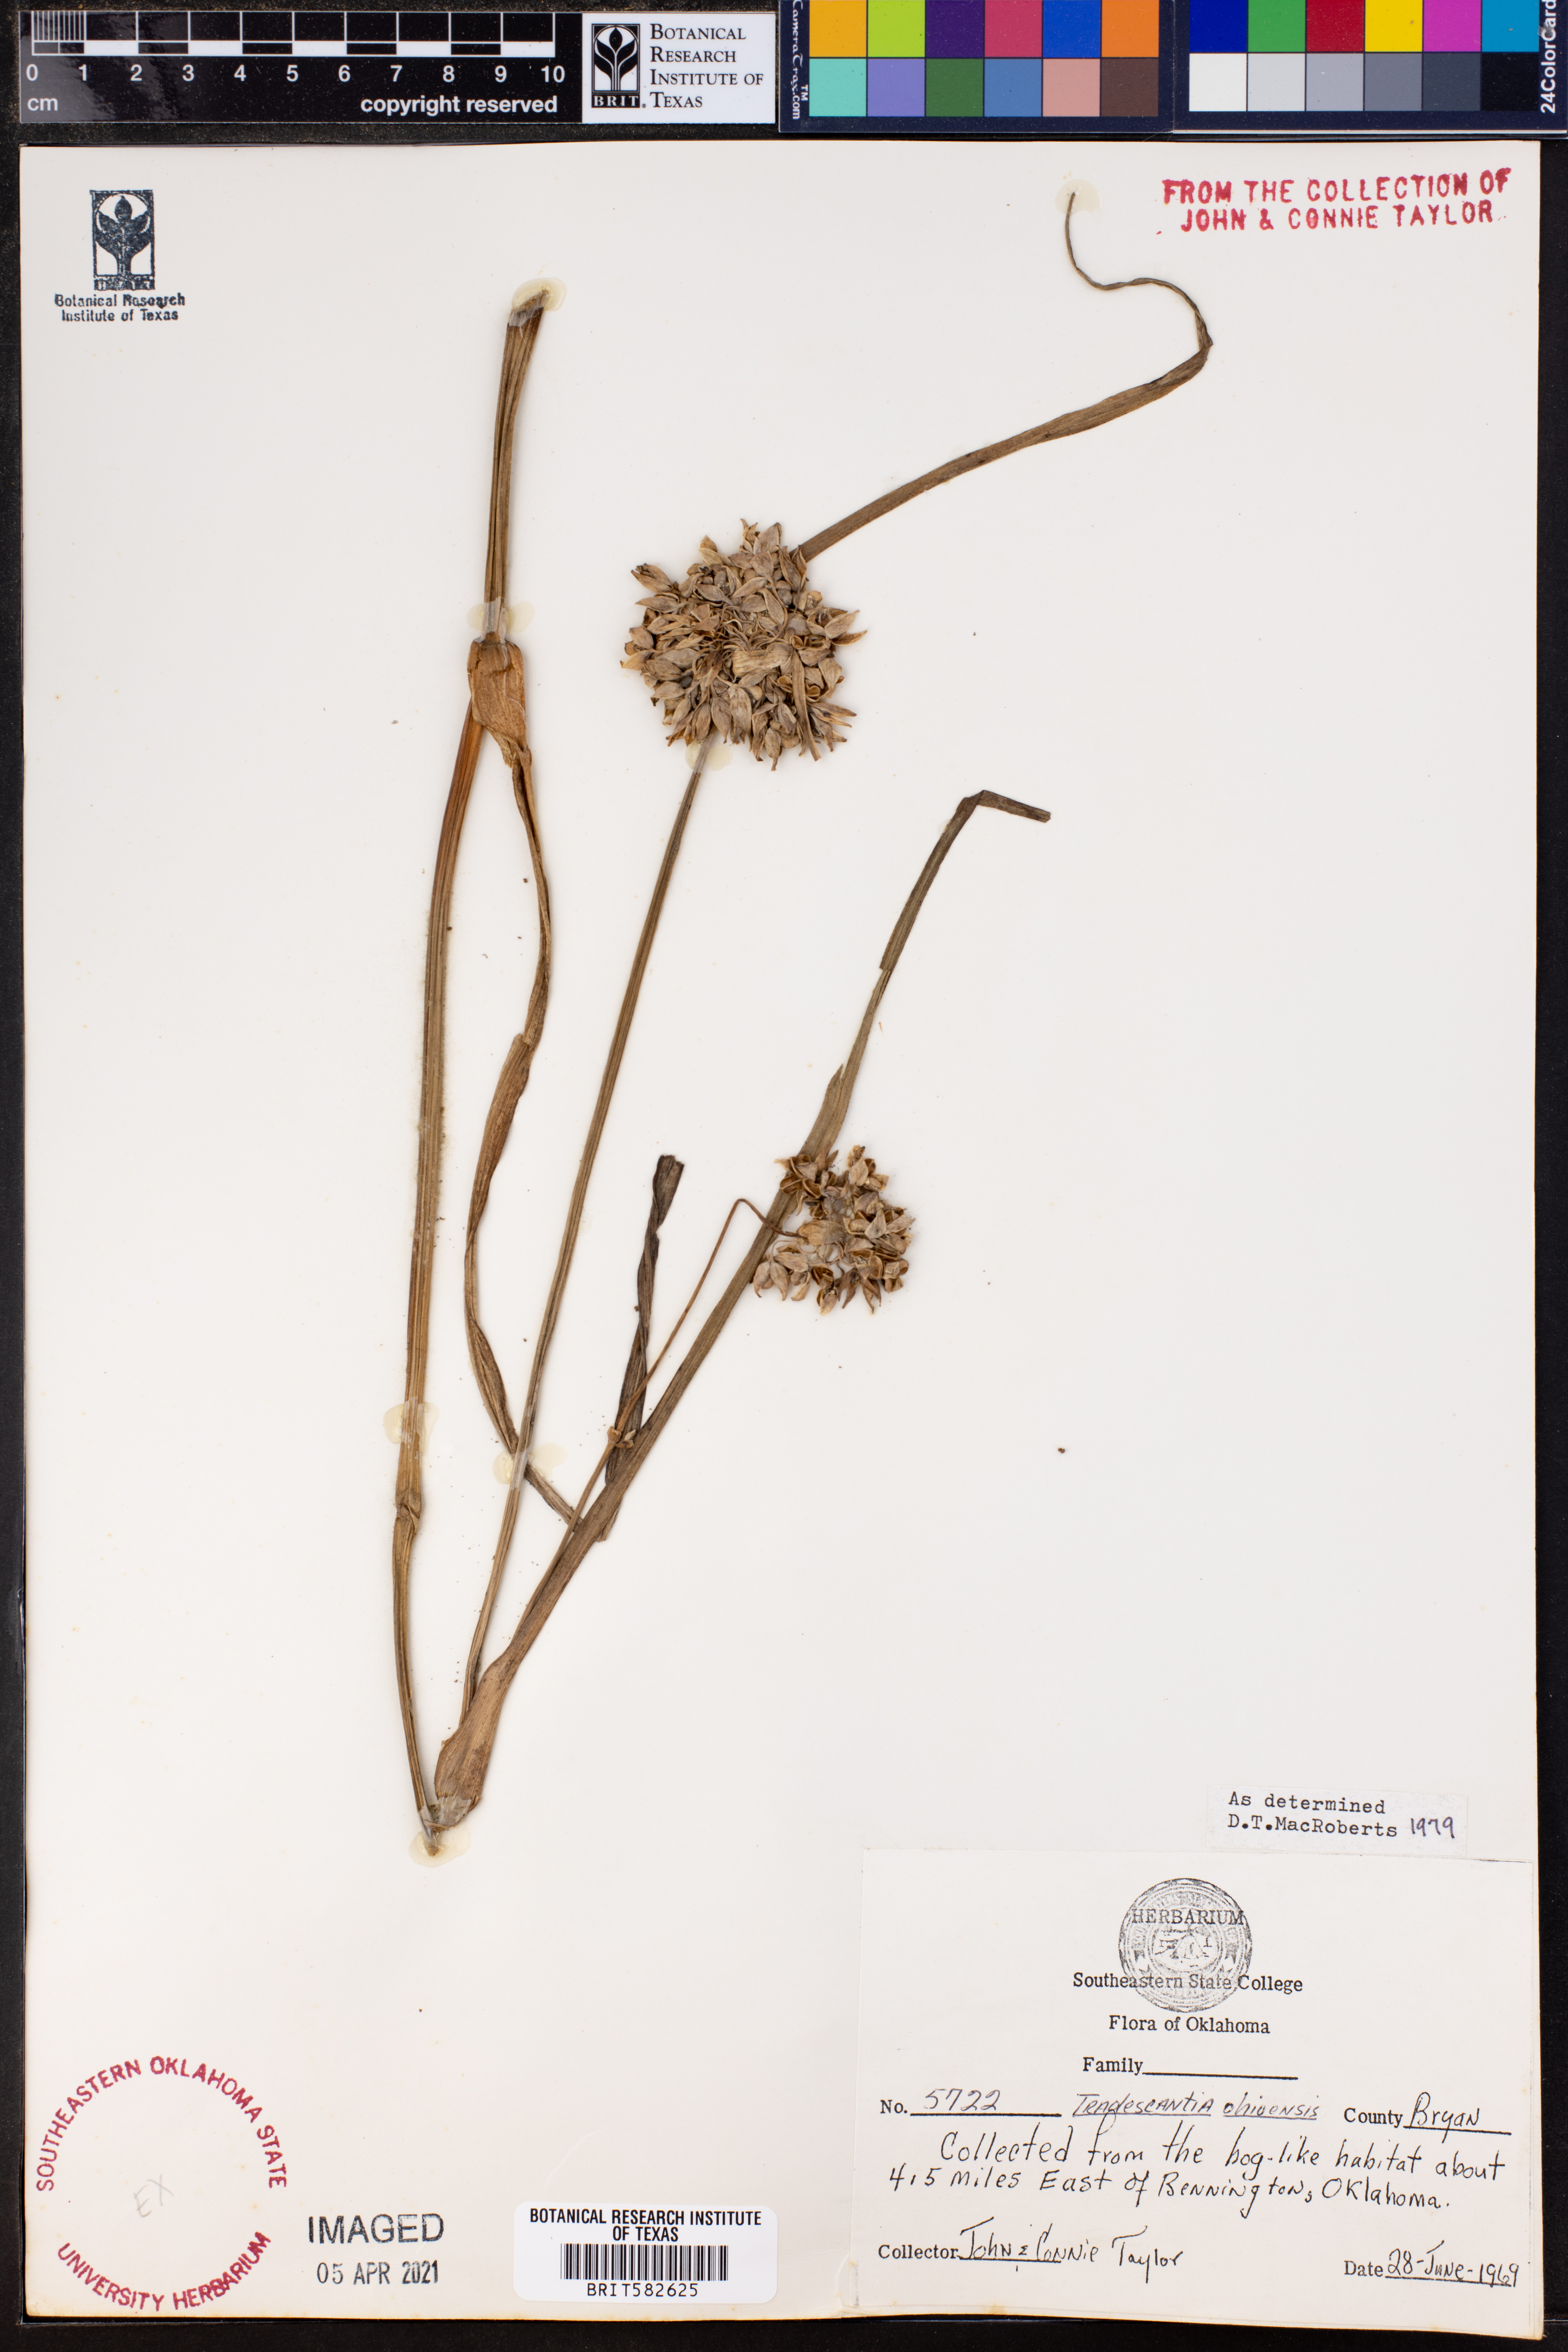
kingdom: Plantae
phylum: Tracheophyta
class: Liliopsida
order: Commelinales
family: Commelinaceae
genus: Tradescantia
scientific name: Tradescantia ohiensis
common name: Ohio spiderwort
